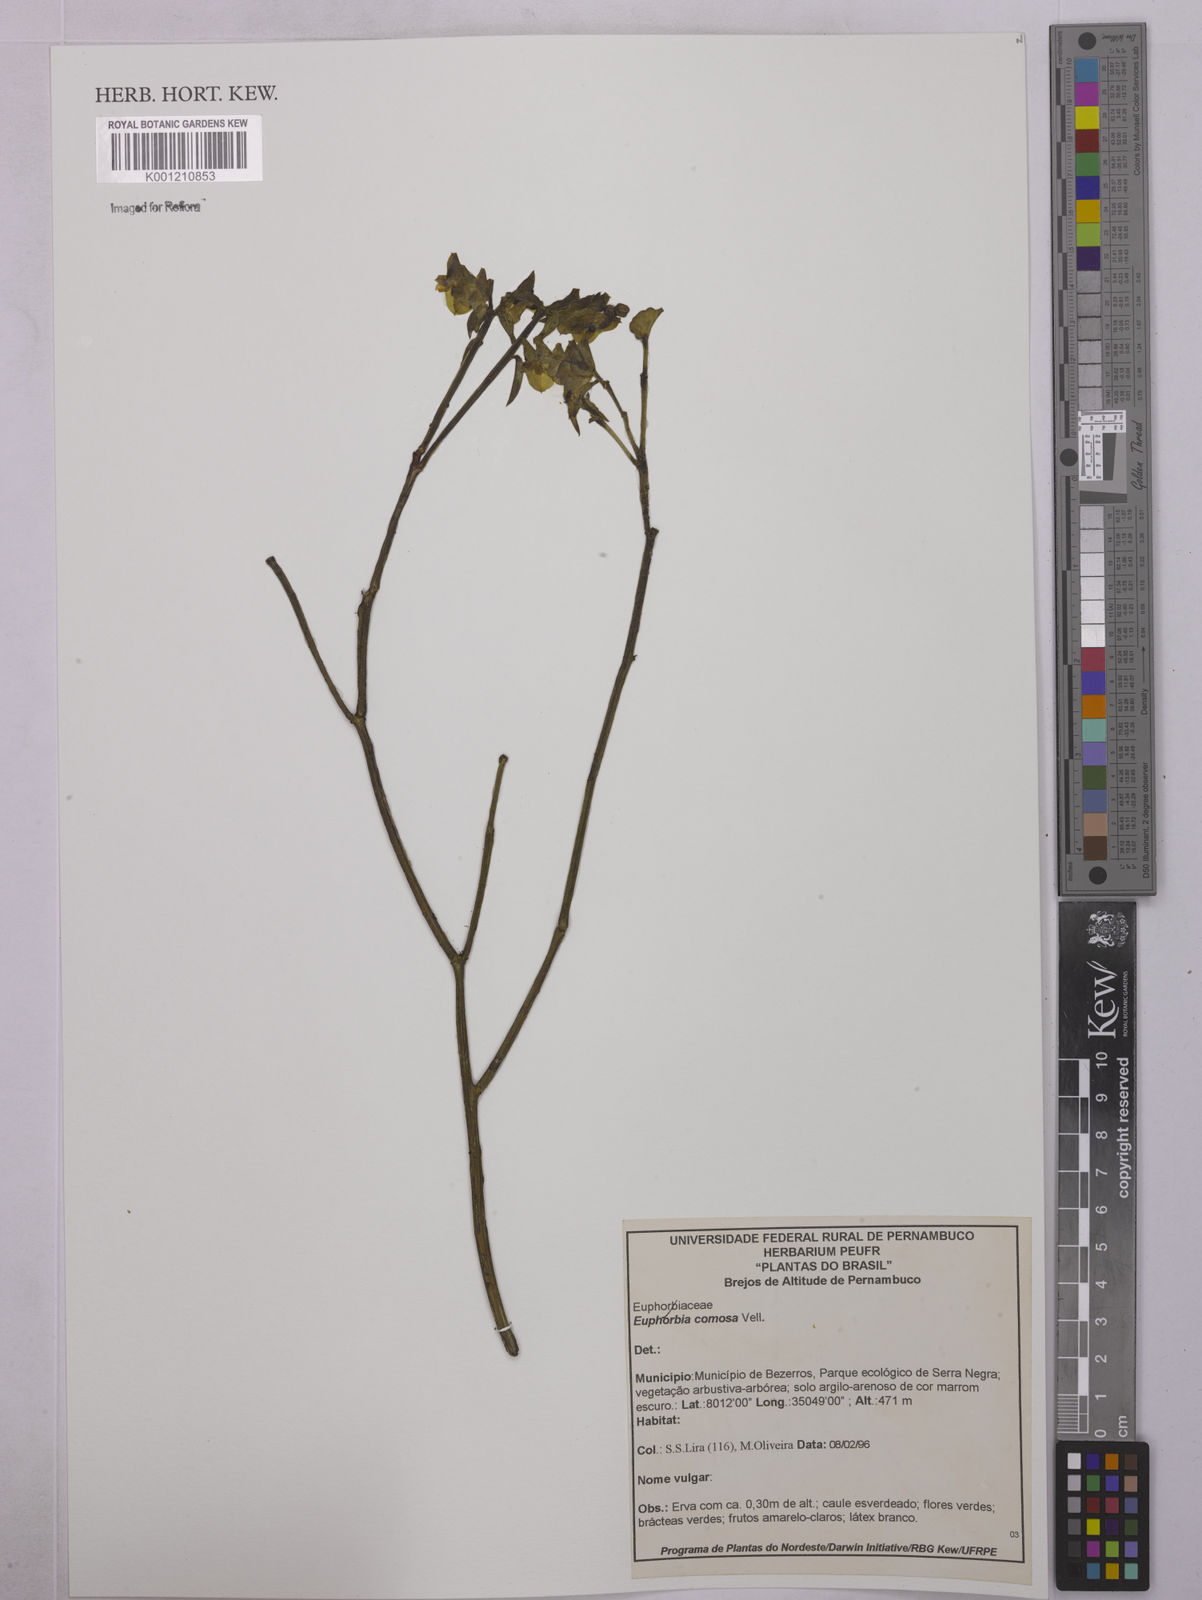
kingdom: Plantae
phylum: Tracheophyta
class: Magnoliopsida
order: Malpighiales
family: Euphorbiaceae
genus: Euphorbia
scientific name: Euphorbia comosa
